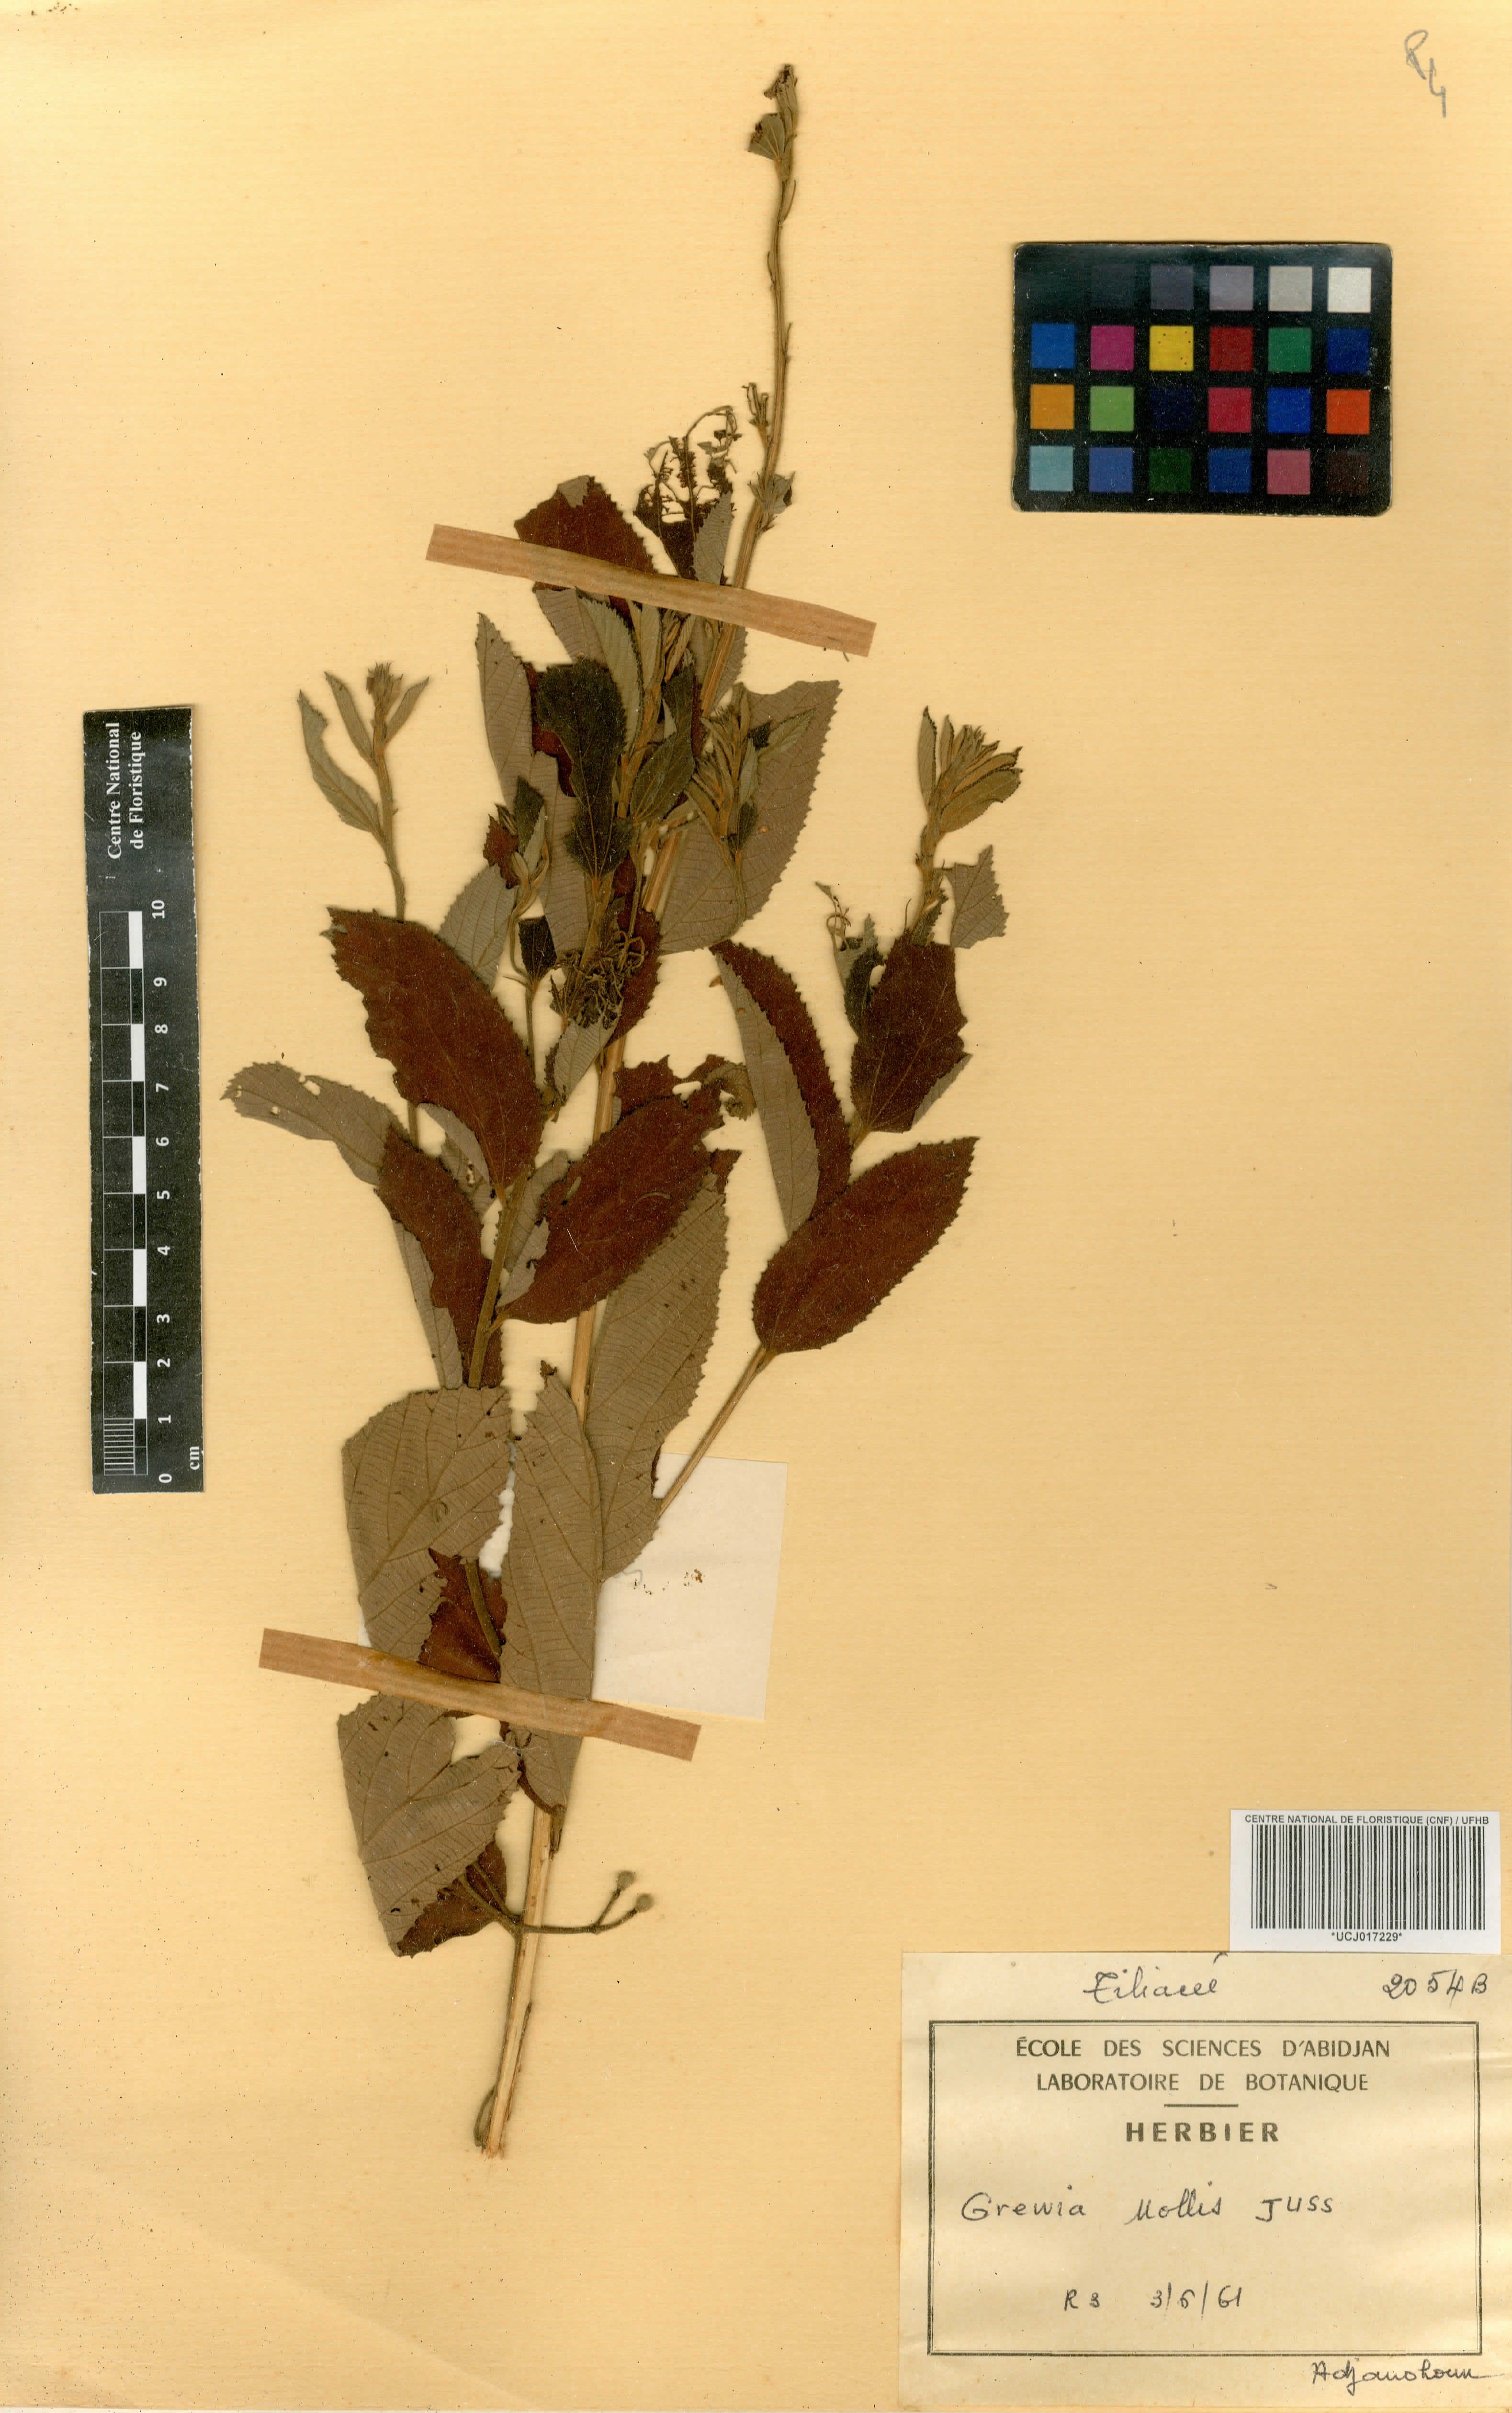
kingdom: Plantae
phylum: Tracheophyta
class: Magnoliopsida
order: Malvales
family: Malvaceae
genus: Grewia
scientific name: Grewia mollis
